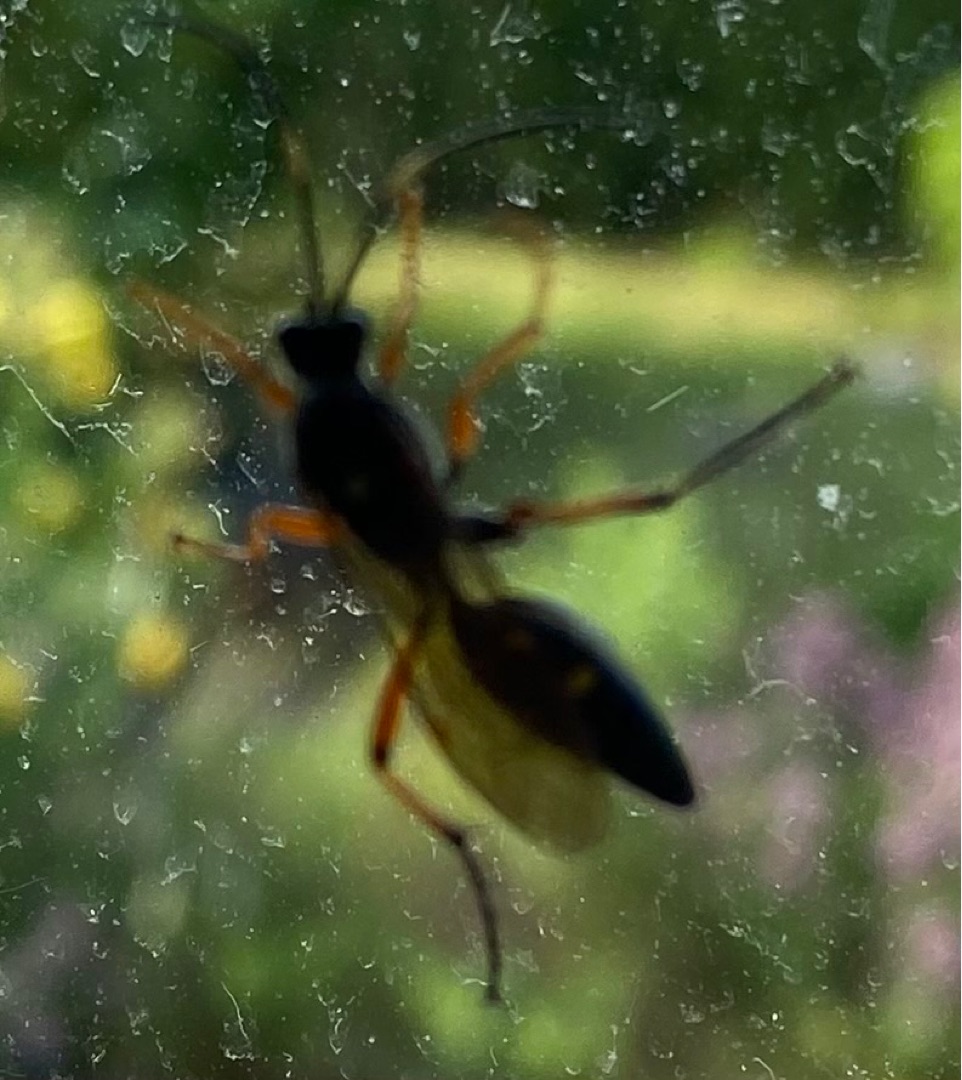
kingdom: Animalia
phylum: Arthropoda
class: Insecta
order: Hymenoptera
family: Ichneumonidae
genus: Diphyus
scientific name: Diphyus quadripunctorius
